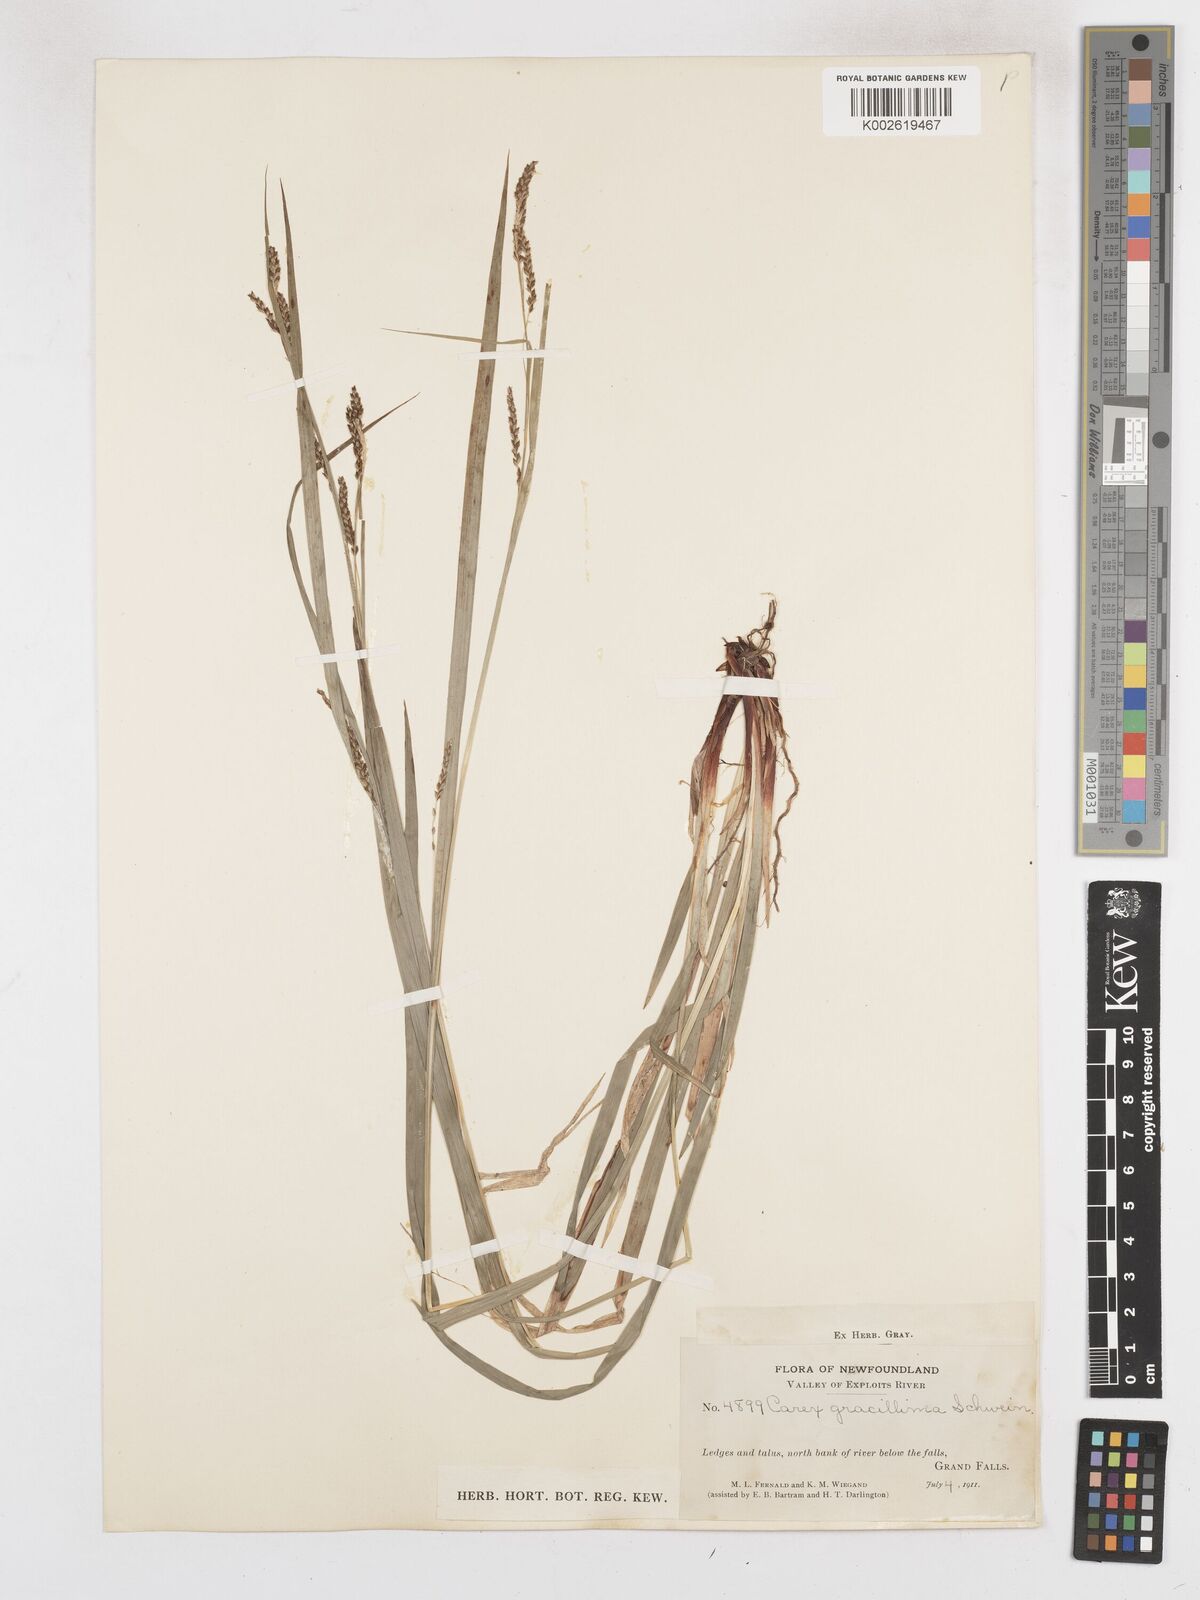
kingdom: Plantae
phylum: Tracheophyta
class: Liliopsida
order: Poales
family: Cyperaceae
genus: Carex
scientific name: Carex gracillima
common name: Graceful sedge
